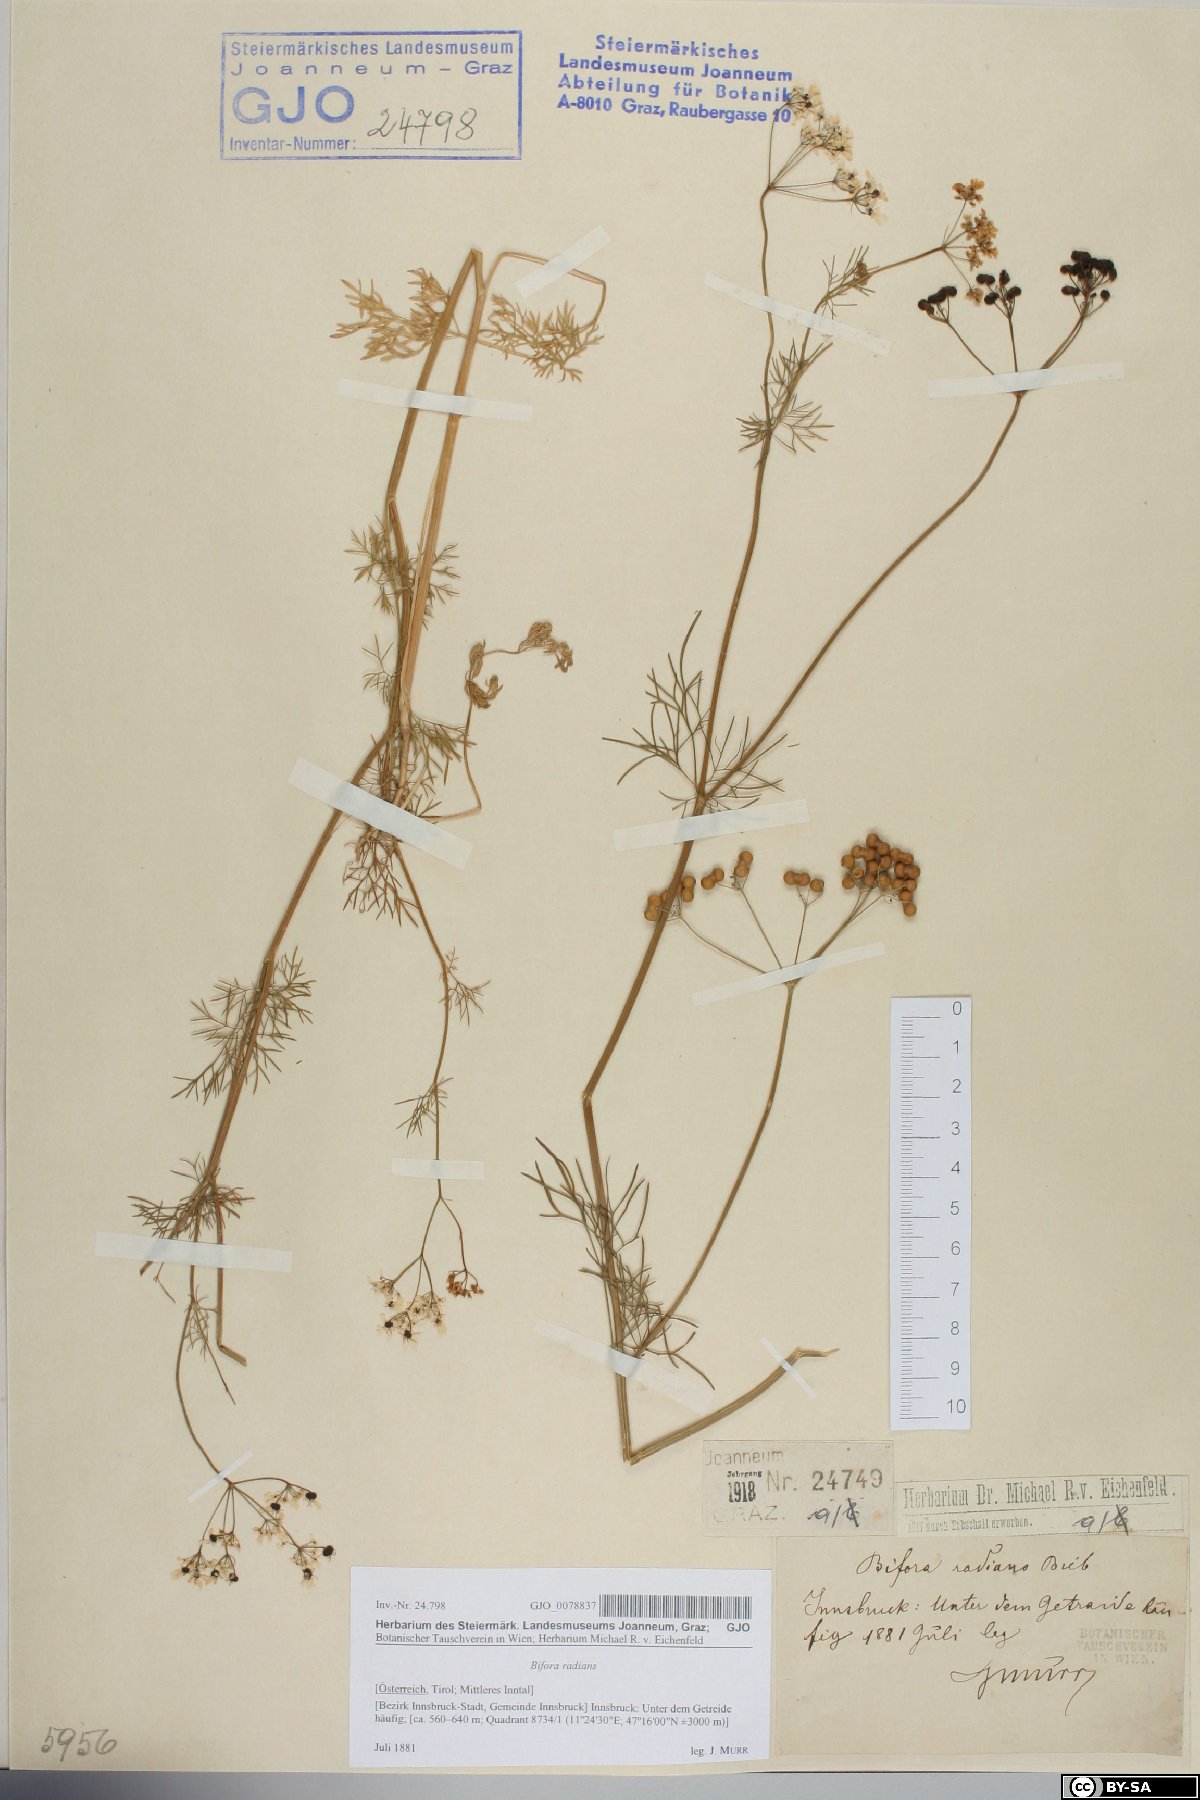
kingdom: Plantae
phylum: Tracheophyta
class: Magnoliopsida
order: Apiales
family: Apiaceae
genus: Bifora
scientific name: Bifora radians
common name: Wild bishop
